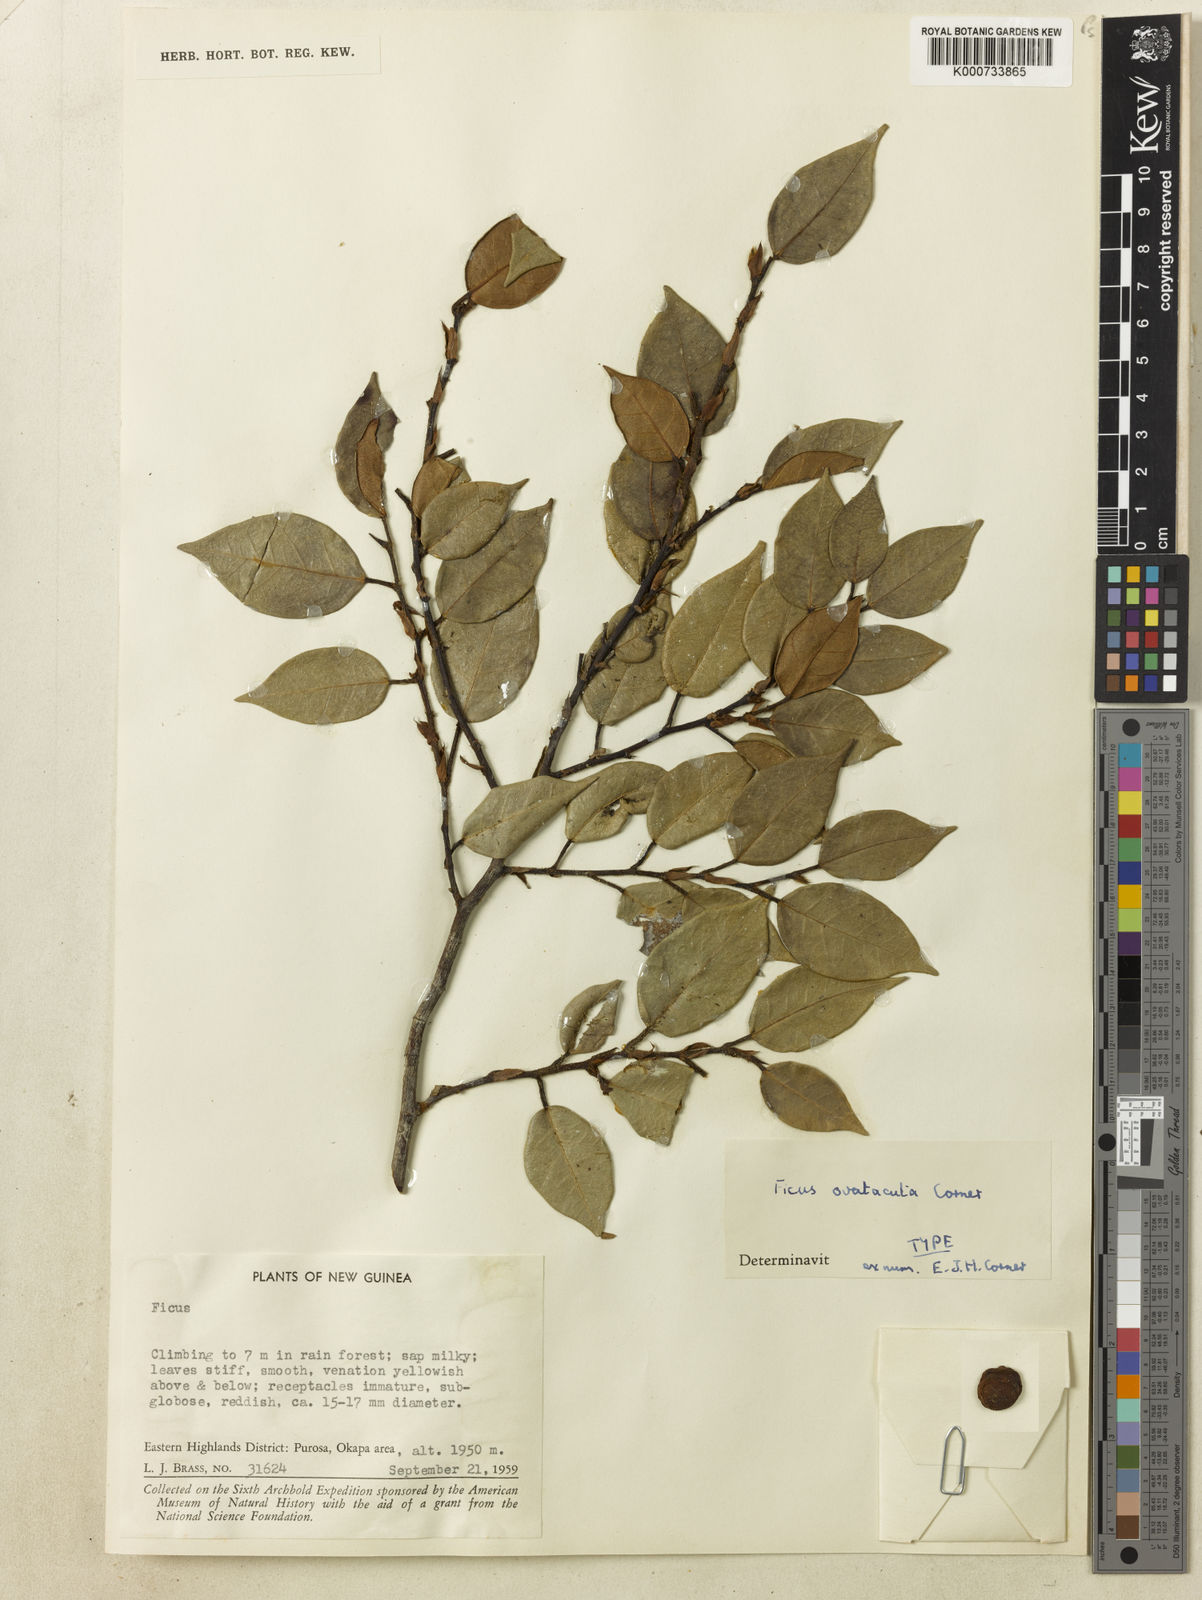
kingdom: Plantae
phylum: Tracheophyta
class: Magnoliopsida
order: Rosales
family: Moraceae
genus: Ficus
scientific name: Ficus ovatacuta
